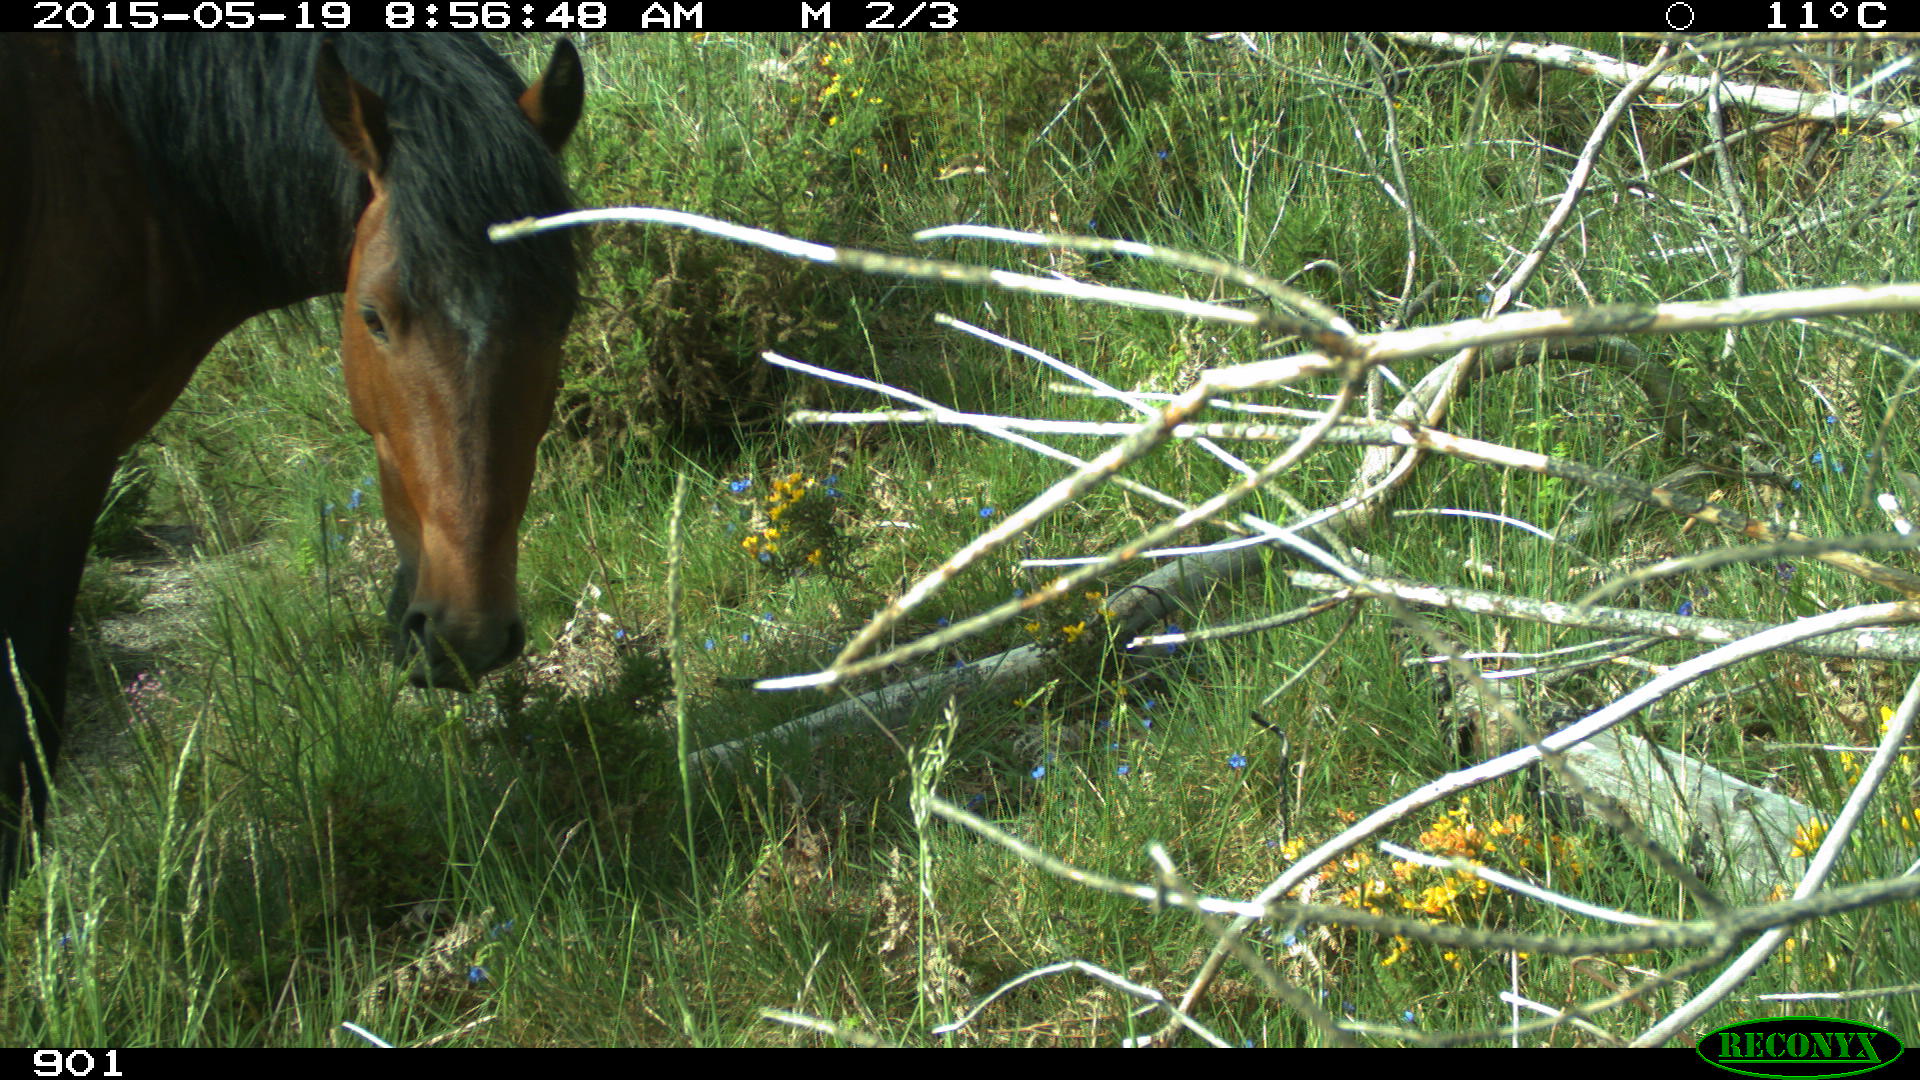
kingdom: Animalia
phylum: Chordata
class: Mammalia
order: Perissodactyla
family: Equidae
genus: Equus
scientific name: Equus caballus
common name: Horse
